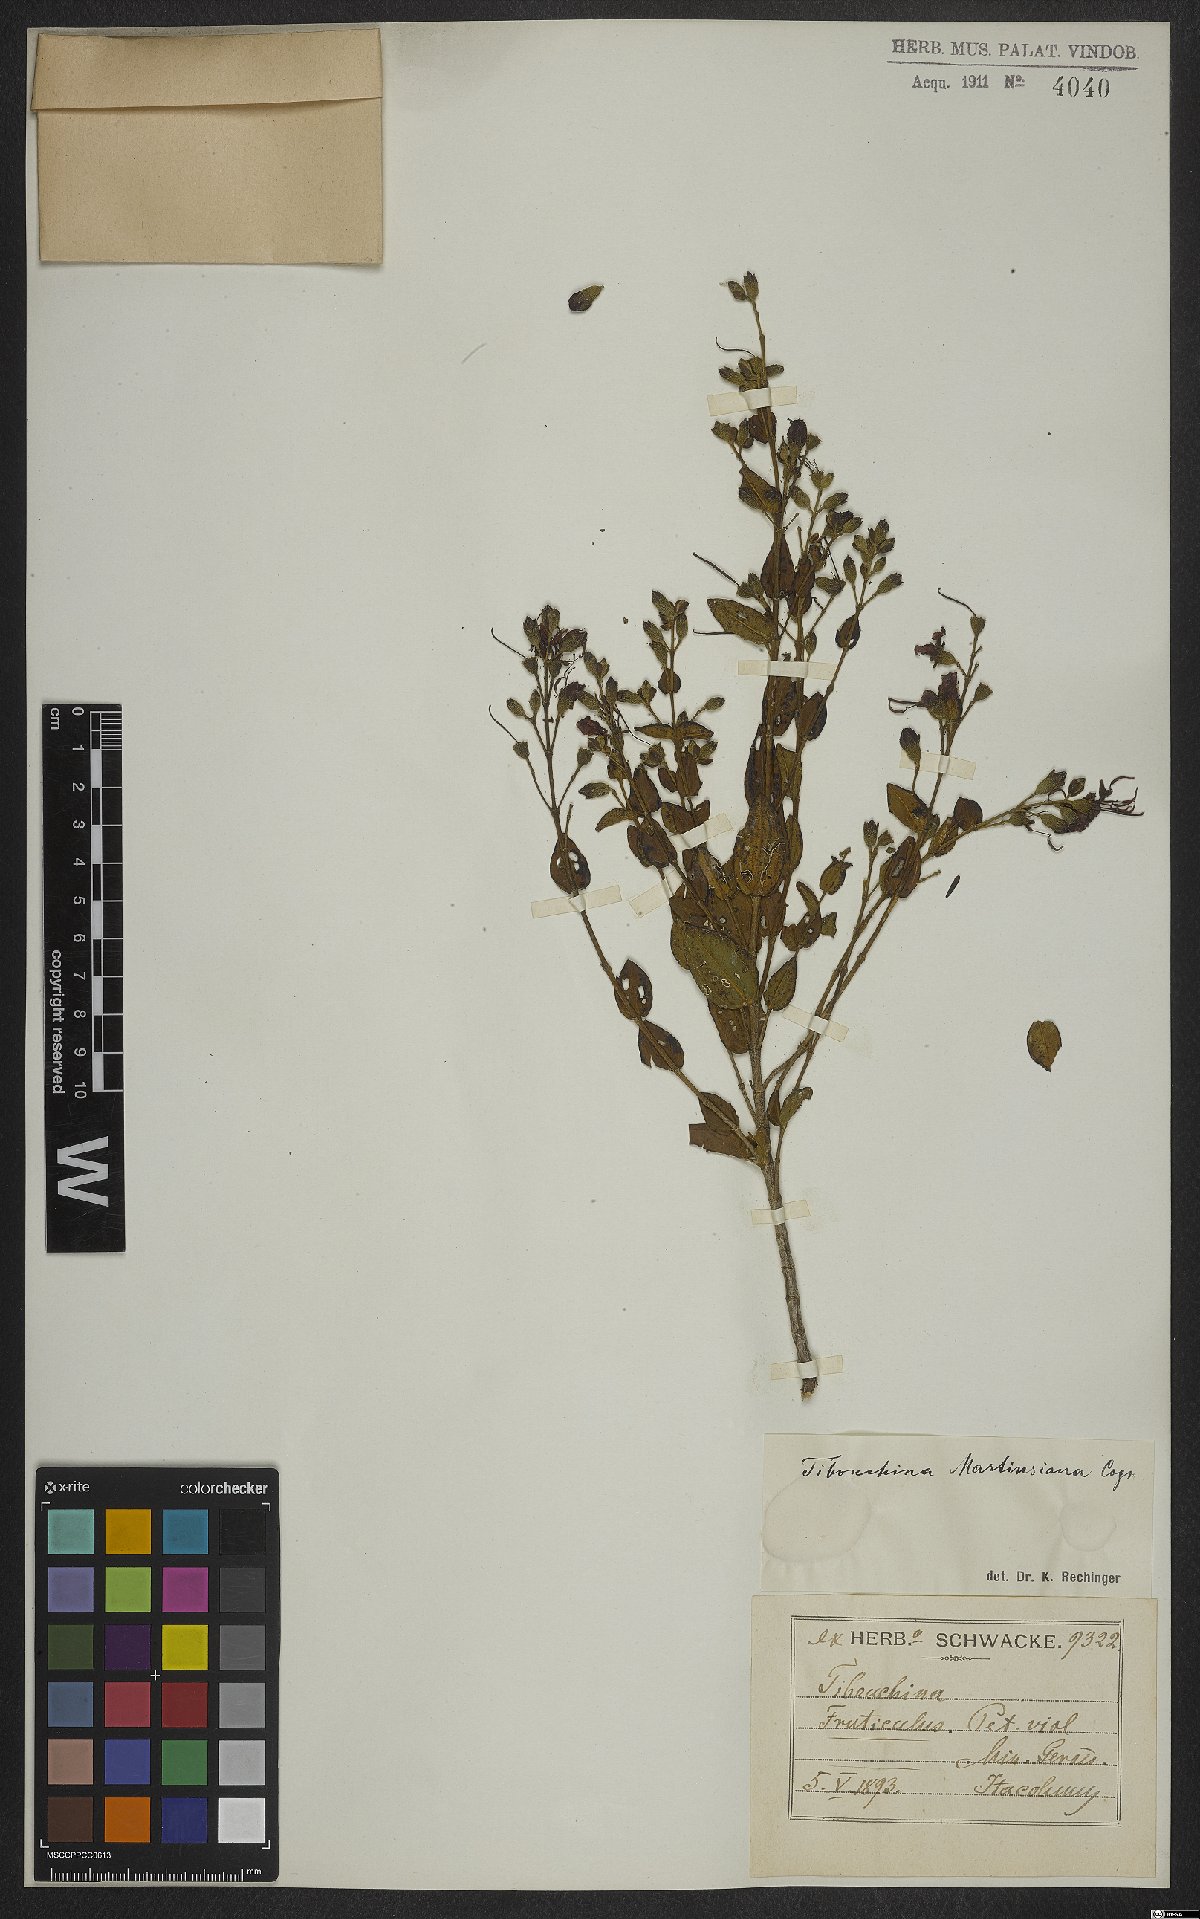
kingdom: Plantae
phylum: Tracheophyta
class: Magnoliopsida
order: Myrtales
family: Melastomataceae
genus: Pleroma
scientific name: Pleroma martiusianum
